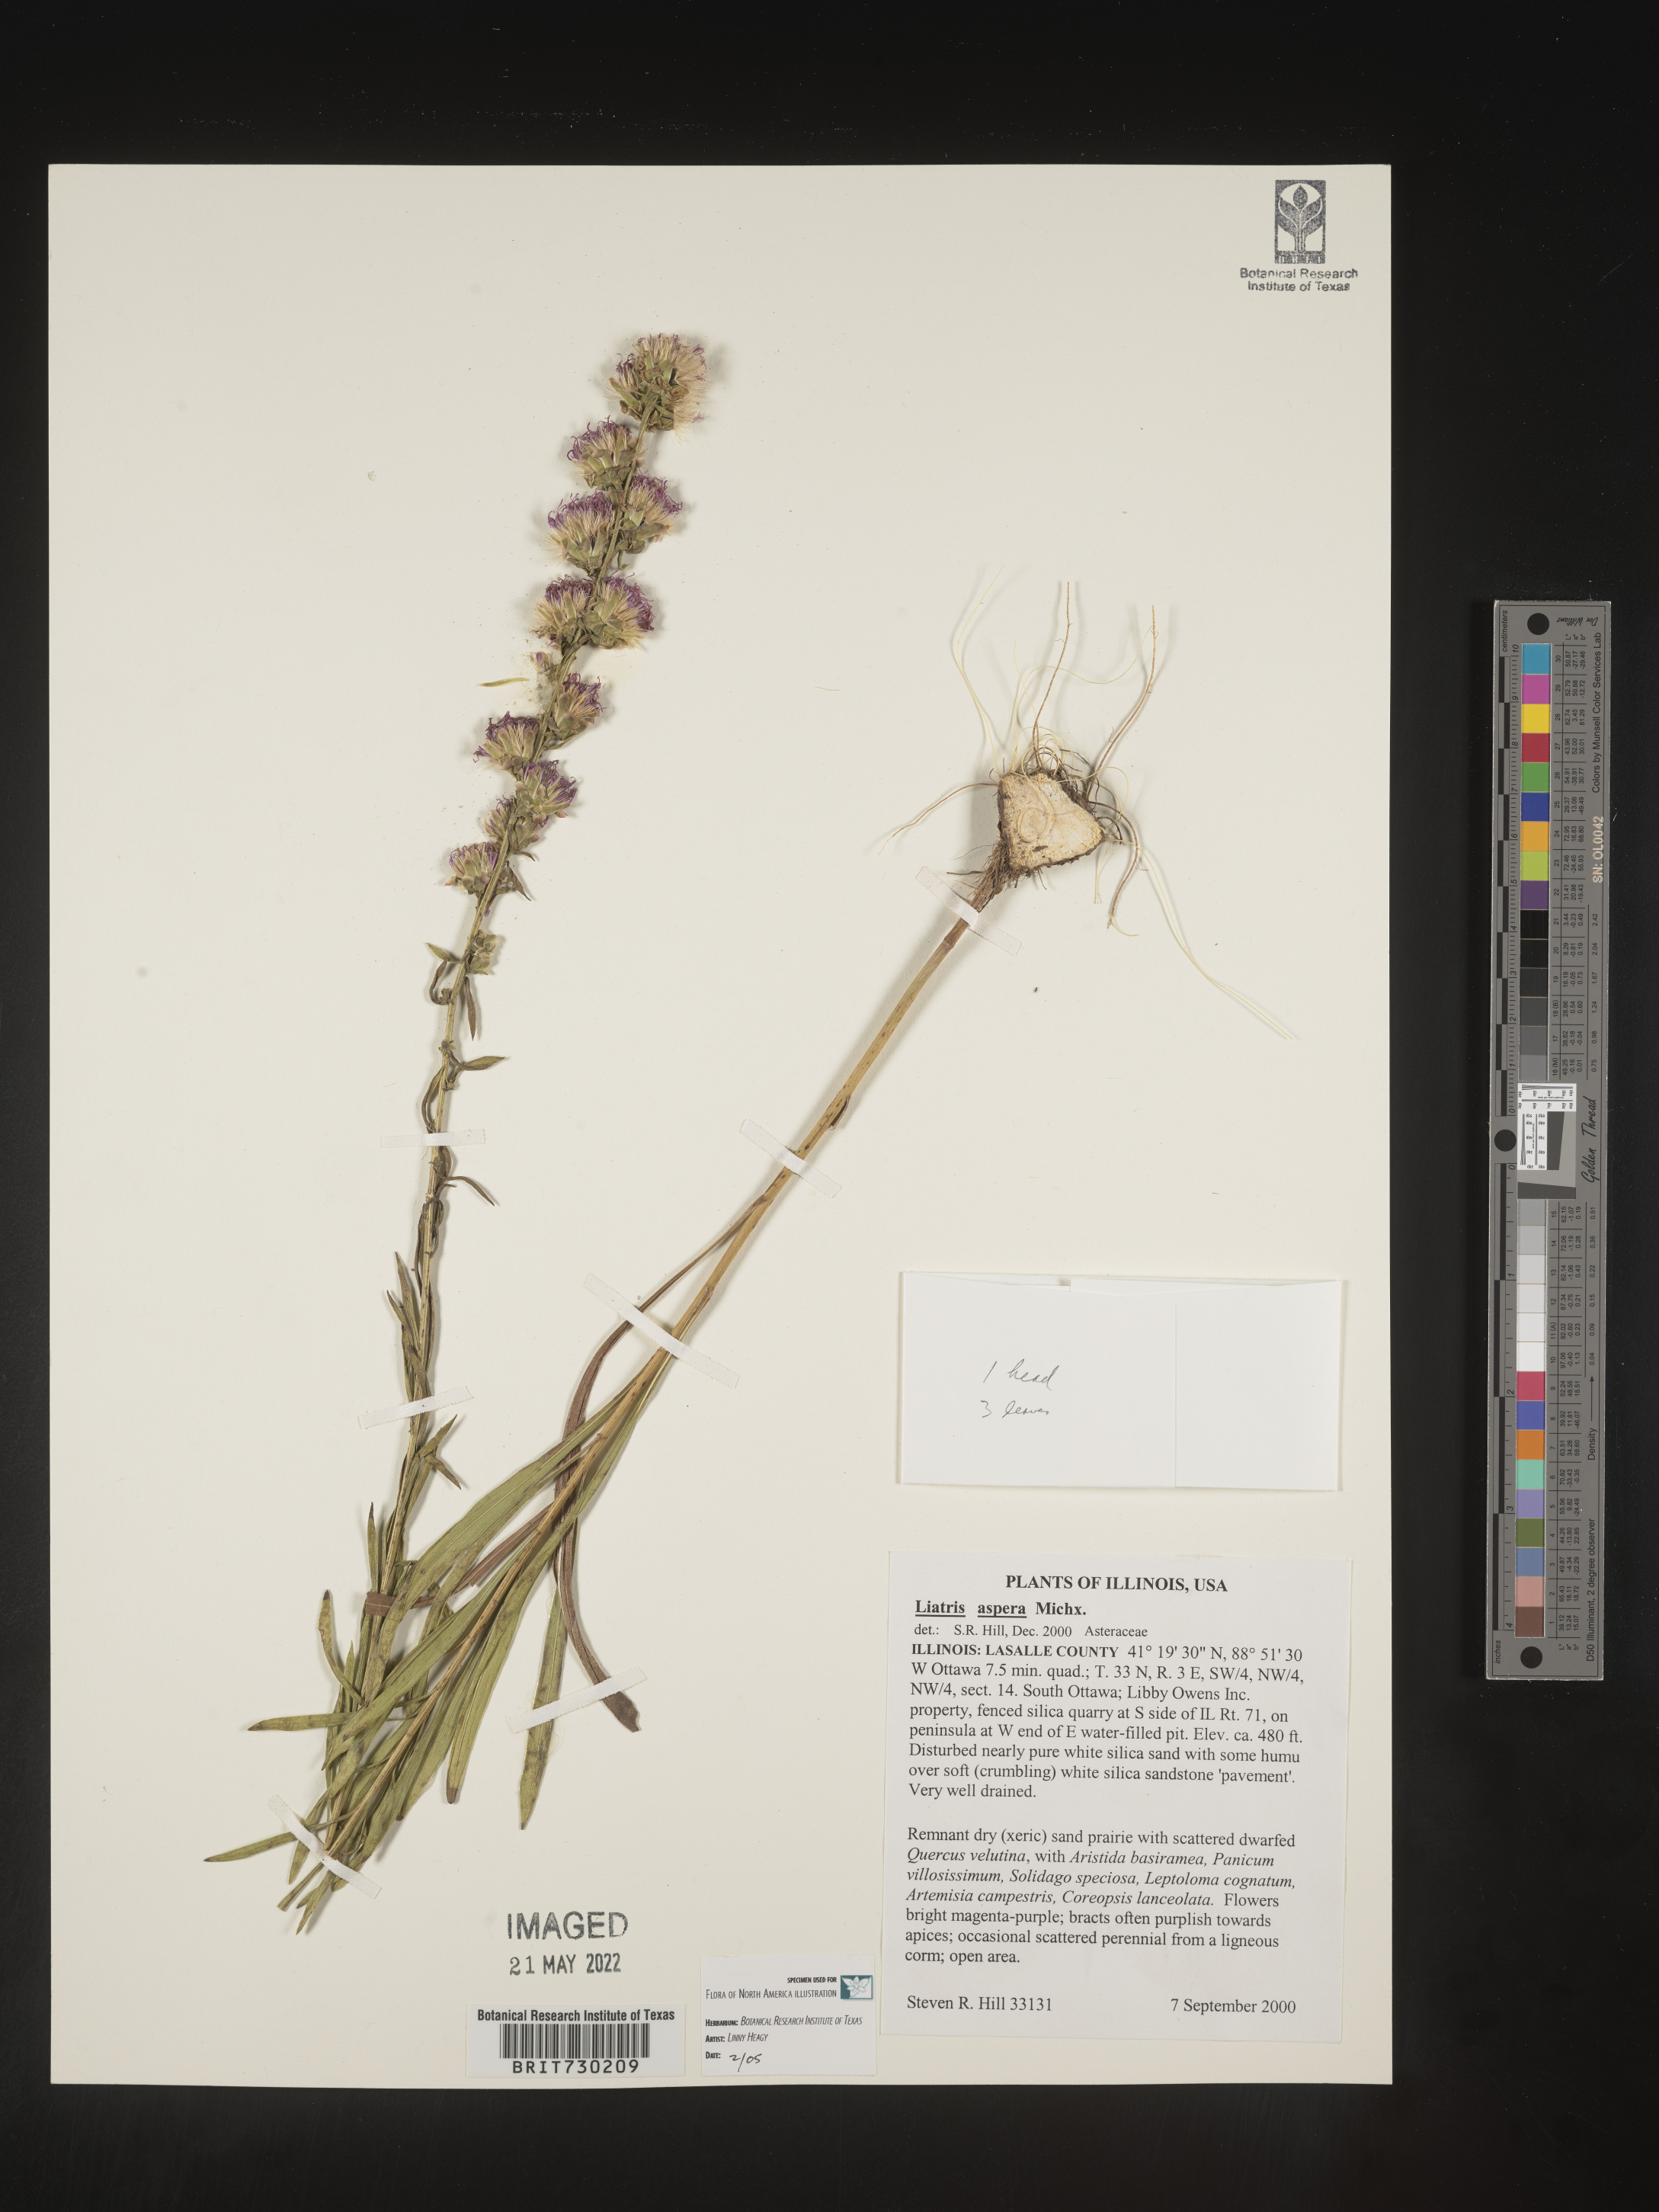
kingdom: Plantae
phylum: Tracheophyta
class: Magnoliopsida
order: Asterales
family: Asteraceae
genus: Liatris
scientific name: Liatris aspera
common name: Lacerate blazing-star
